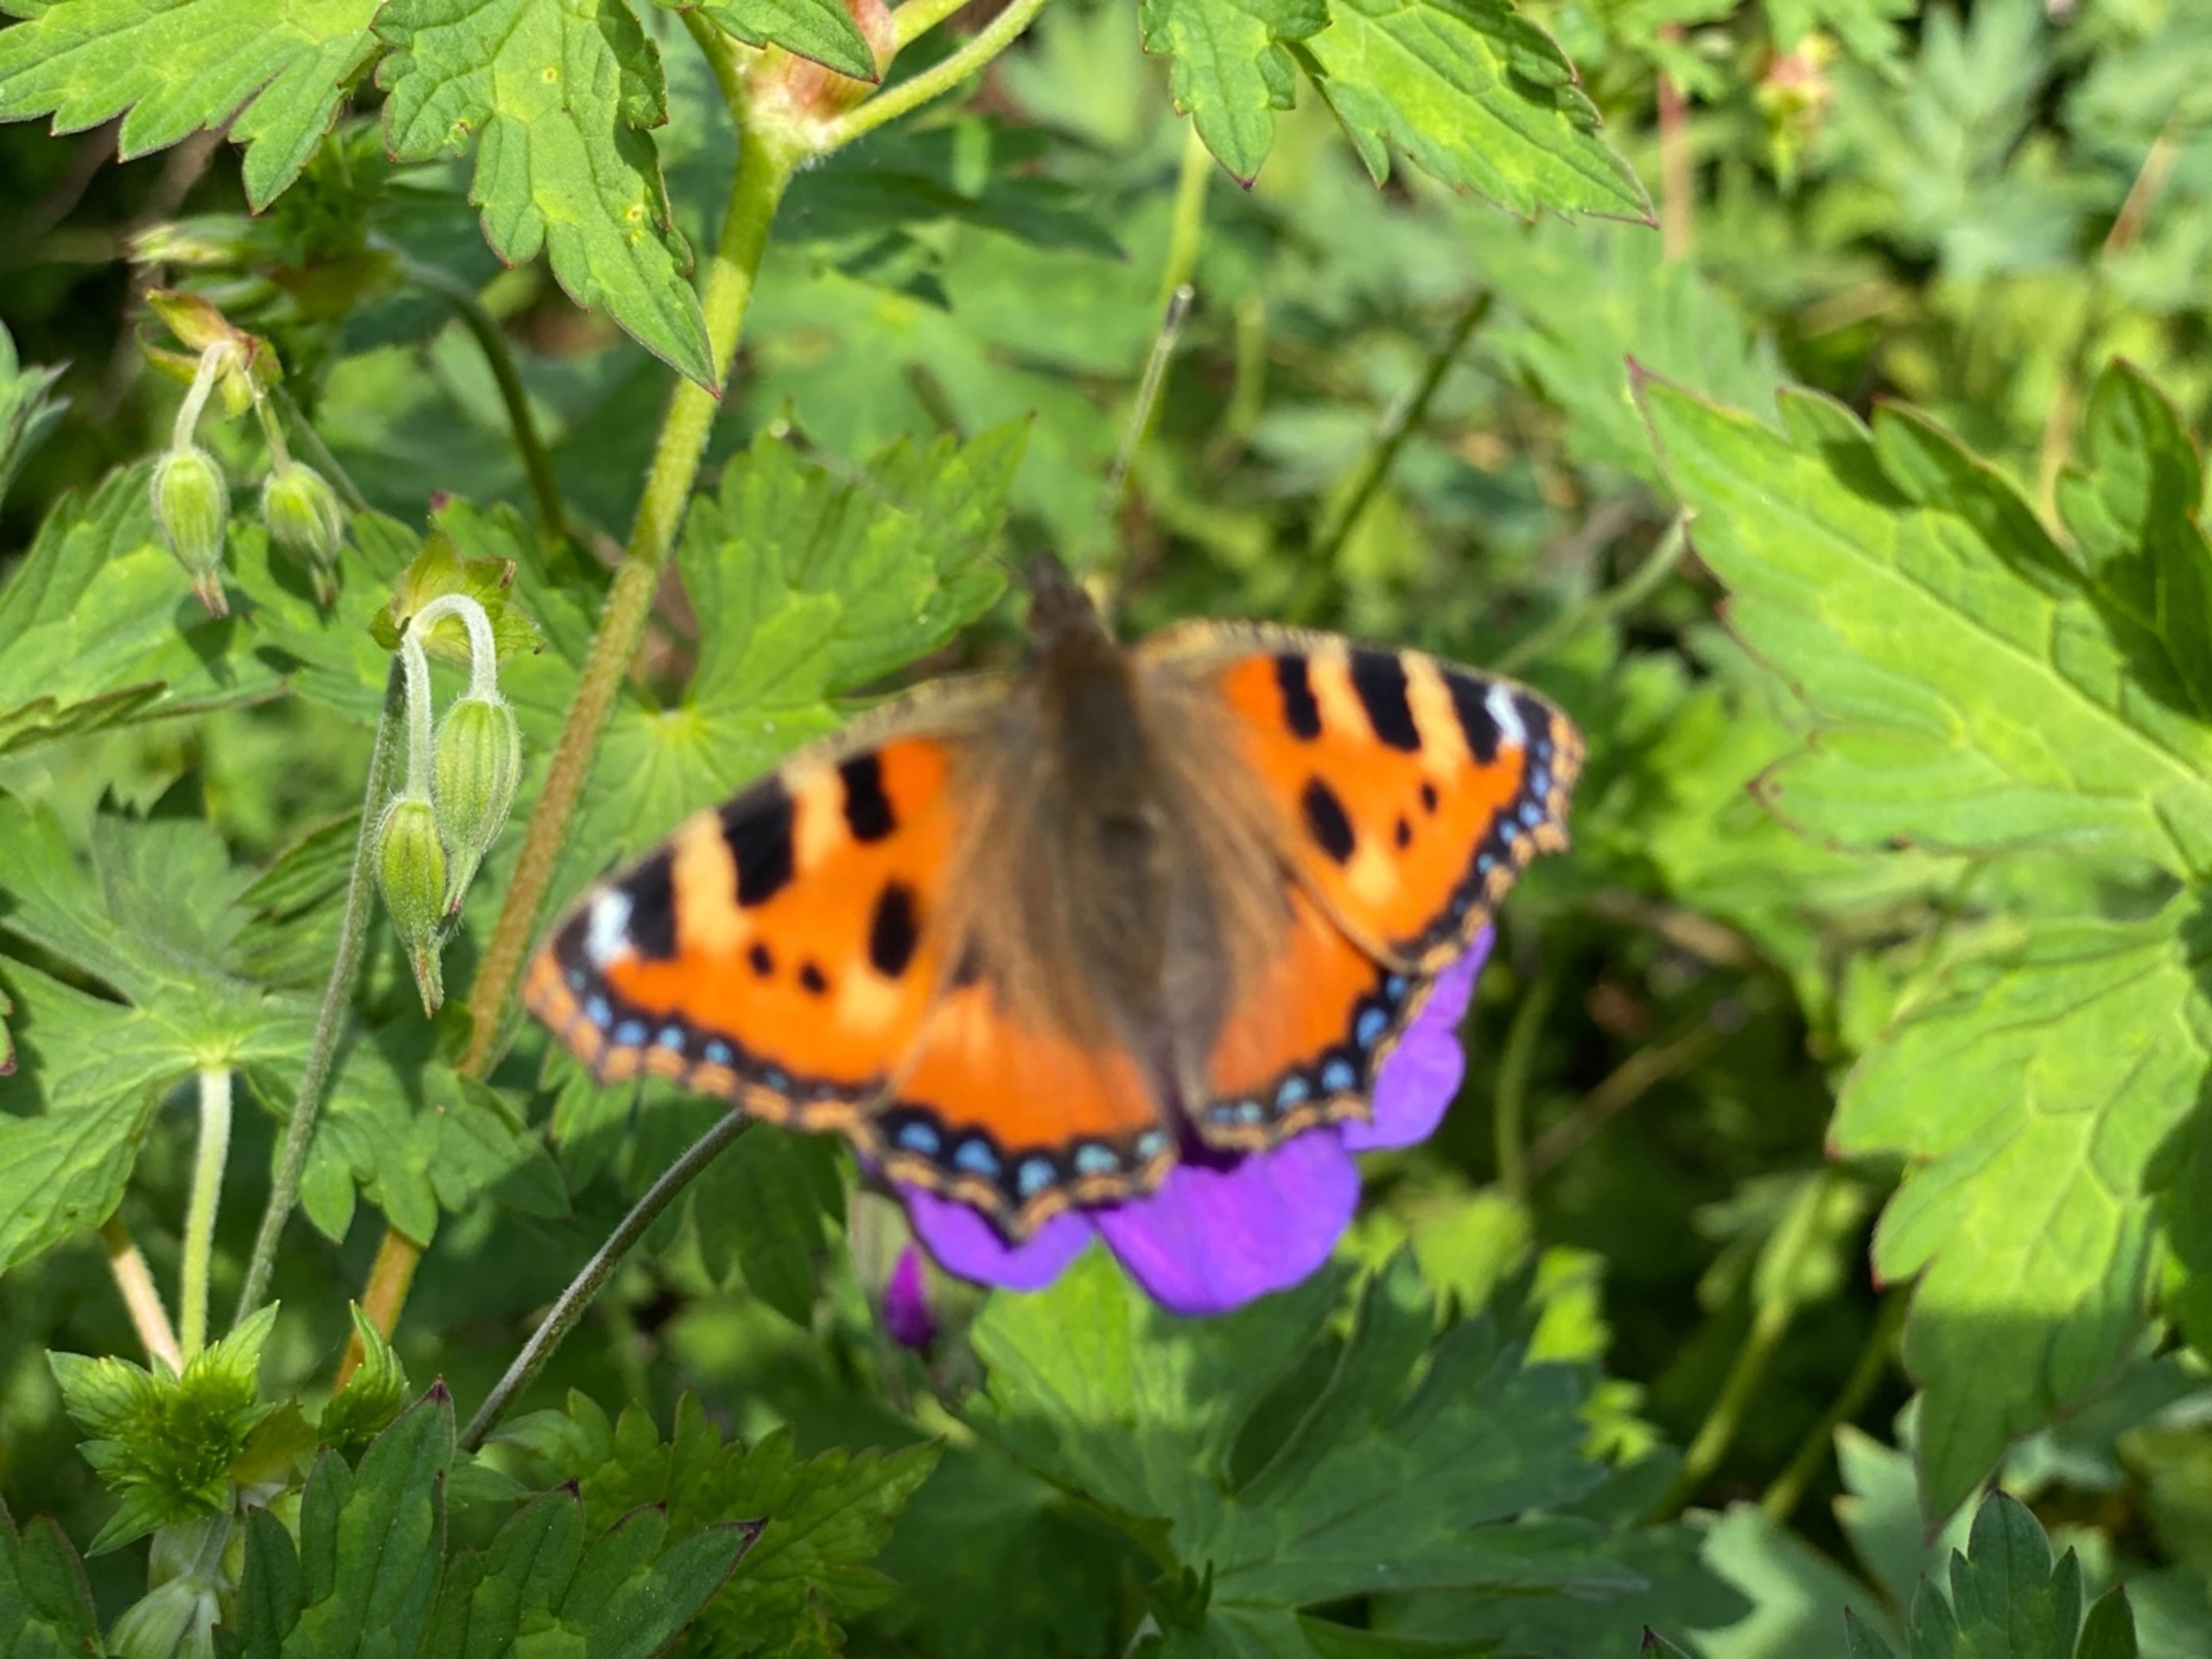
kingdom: Animalia
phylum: Arthropoda
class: Insecta
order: Lepidoptera
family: Nymphalidae
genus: Aglais
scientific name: Aglais urticae
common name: Nældens takvinge
